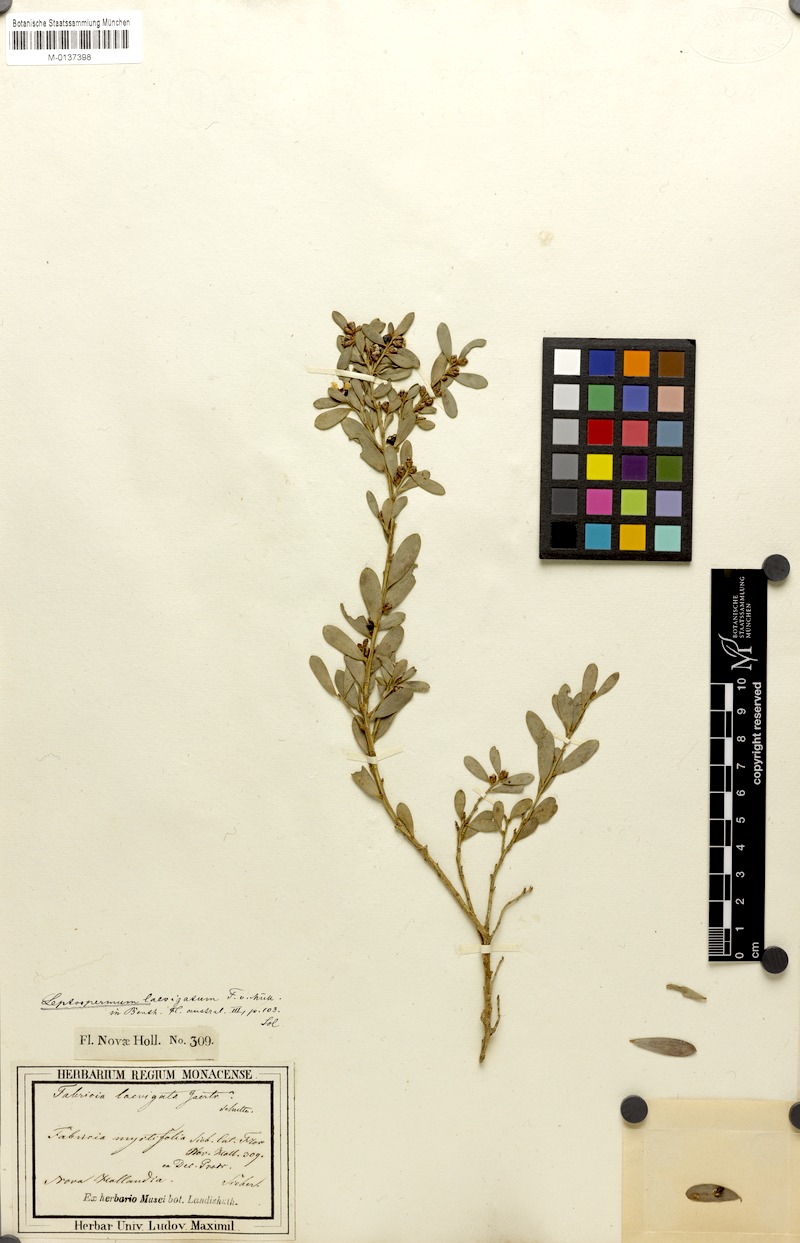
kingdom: Plantae
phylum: Tracheophyta
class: Magnoliopsida
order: Myrtales
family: Myrtaceae
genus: Leptospermum
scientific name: Leptospermum laevigatum
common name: Australian teatree
